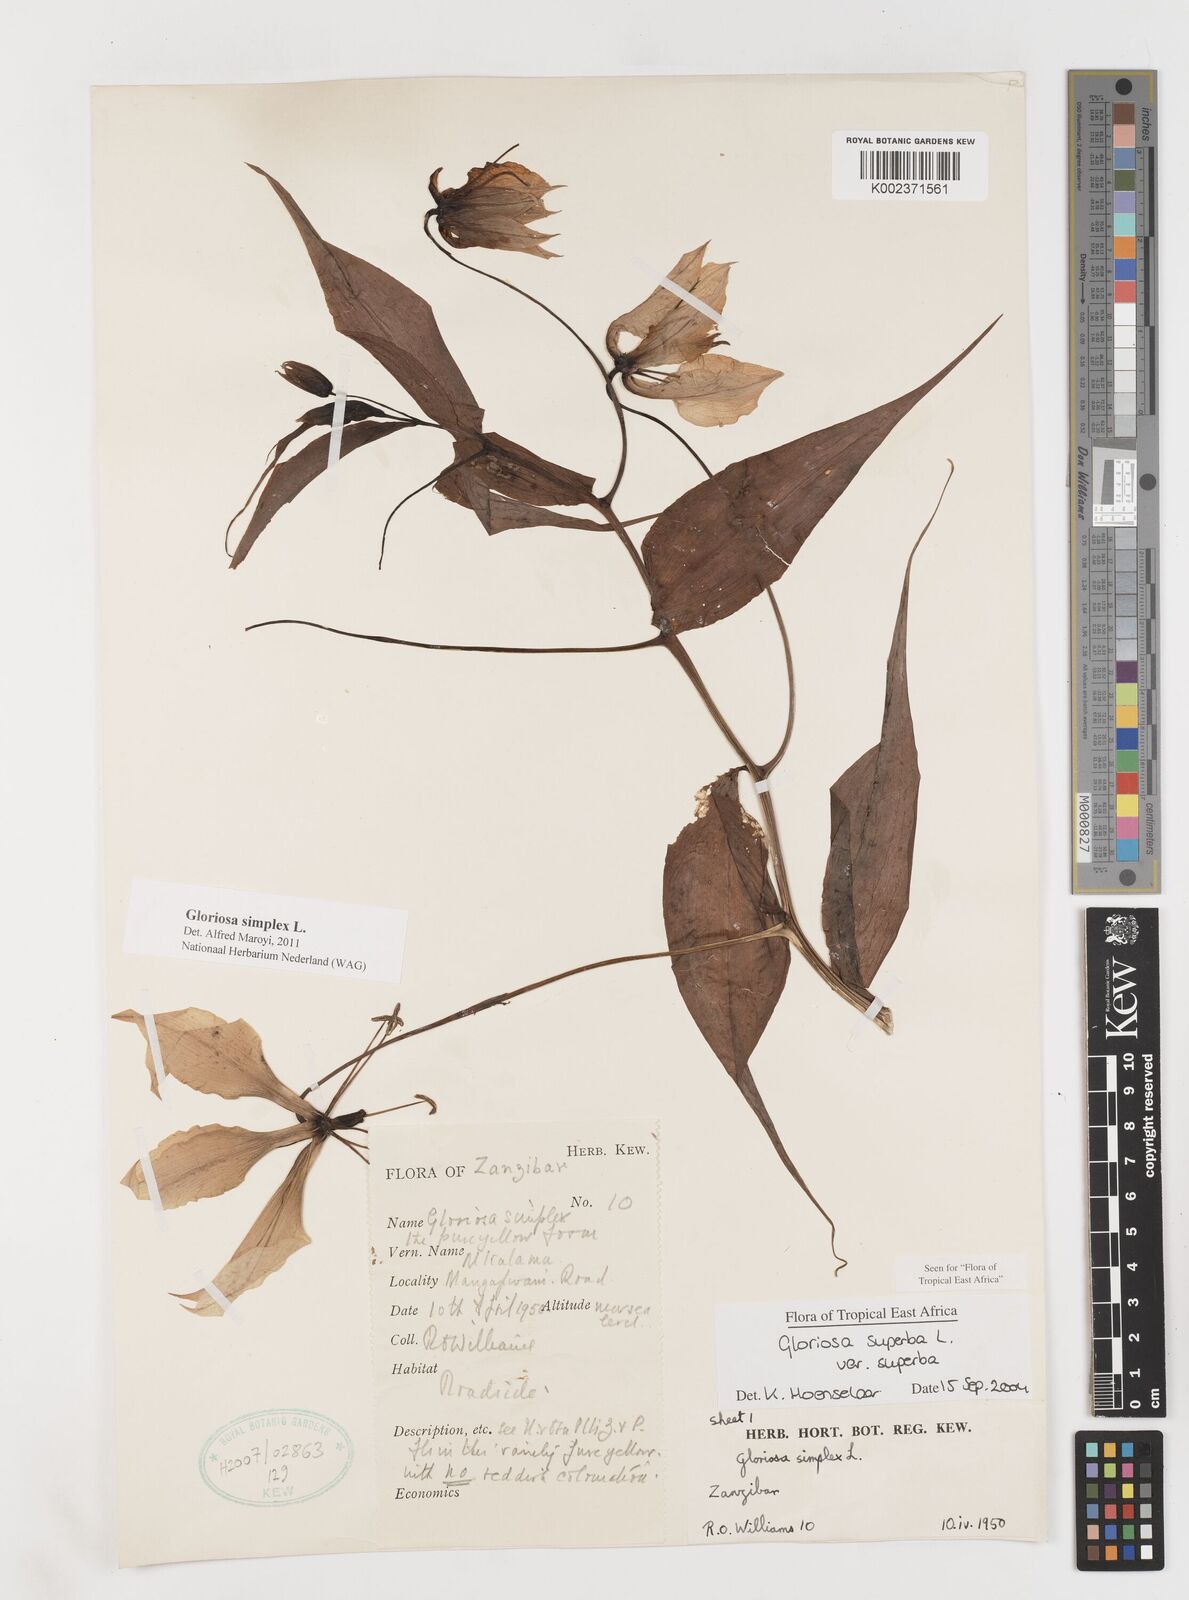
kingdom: Plantae
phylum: Tracheophyta
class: Liliopsida
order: Liliales
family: Colchicaceae
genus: Gloriosa
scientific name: Gloriosa simplex
